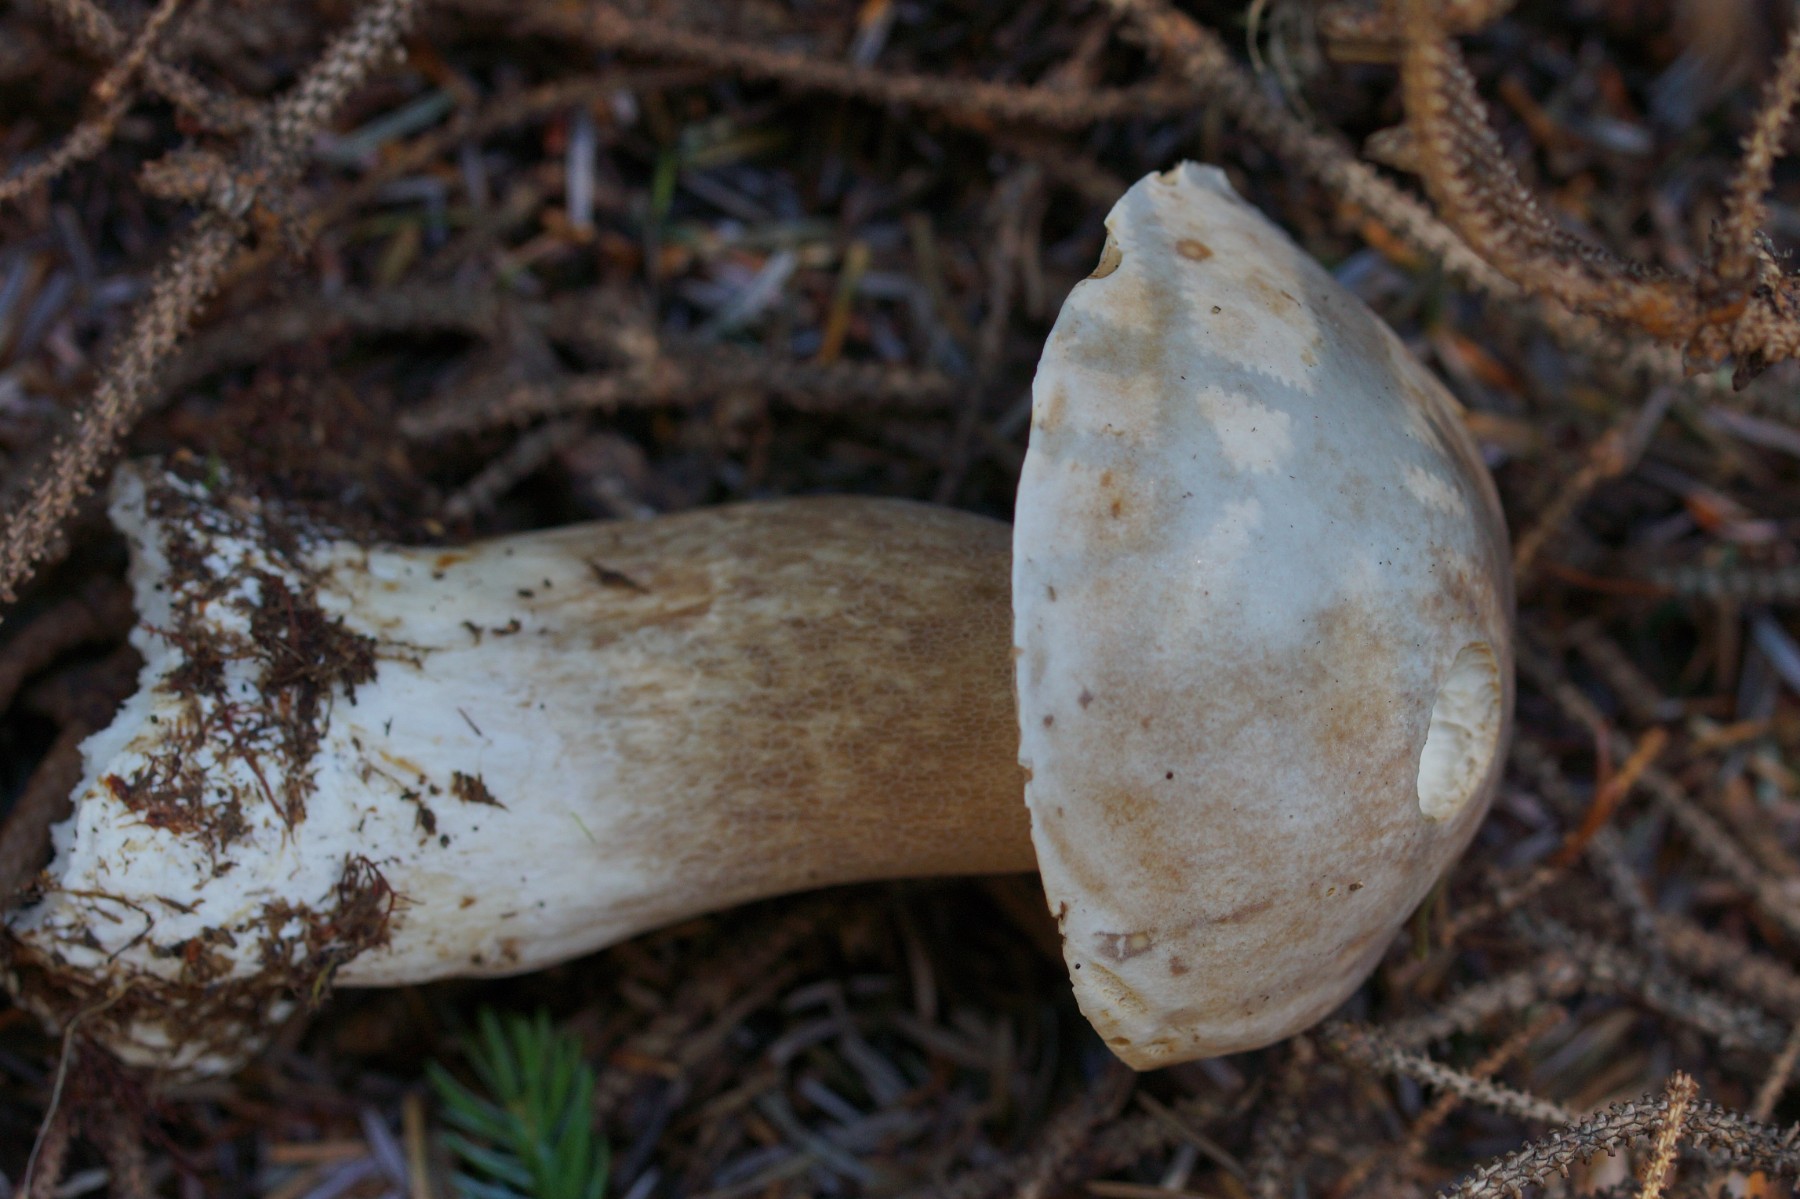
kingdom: Fungi
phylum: Basidiomycota
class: Agaricomycetes
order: Boletales
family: Boletaceae
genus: Boletus
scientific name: Boletus edulis
